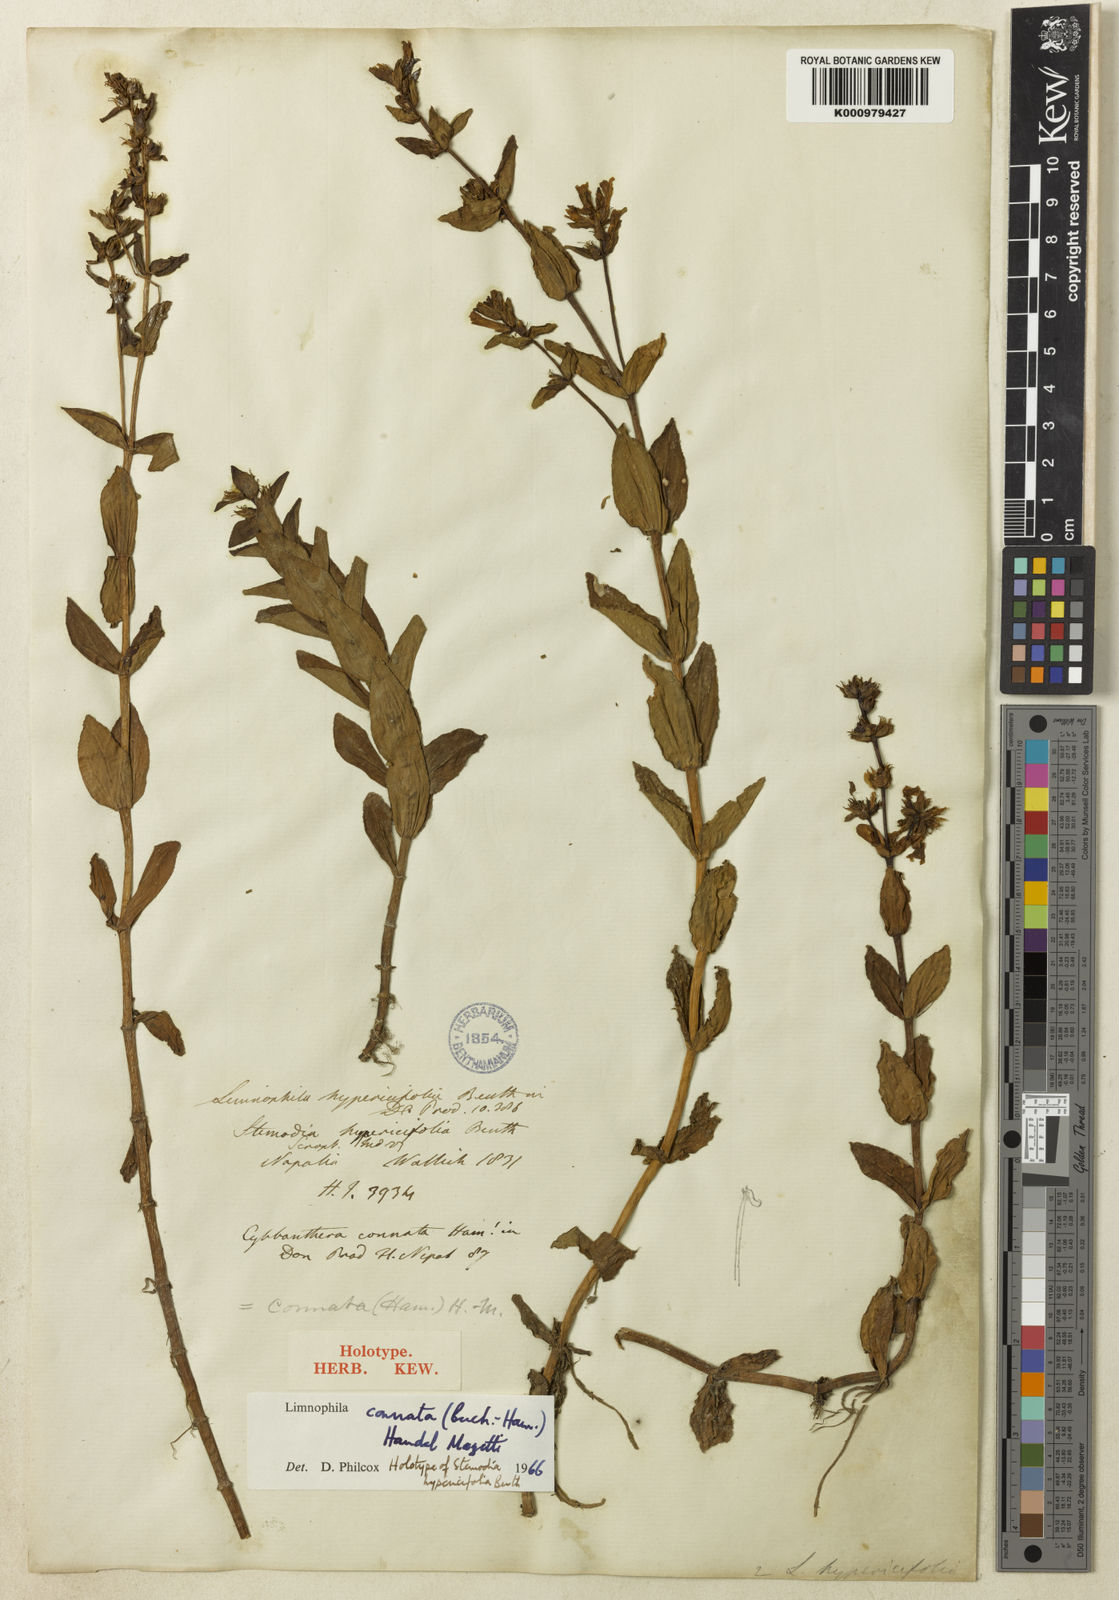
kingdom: Plantae
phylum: Tracheophyta
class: Magnoliopsida
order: Lamiales
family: Plantaginaceae
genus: Limnophila
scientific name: Limnophila connata
